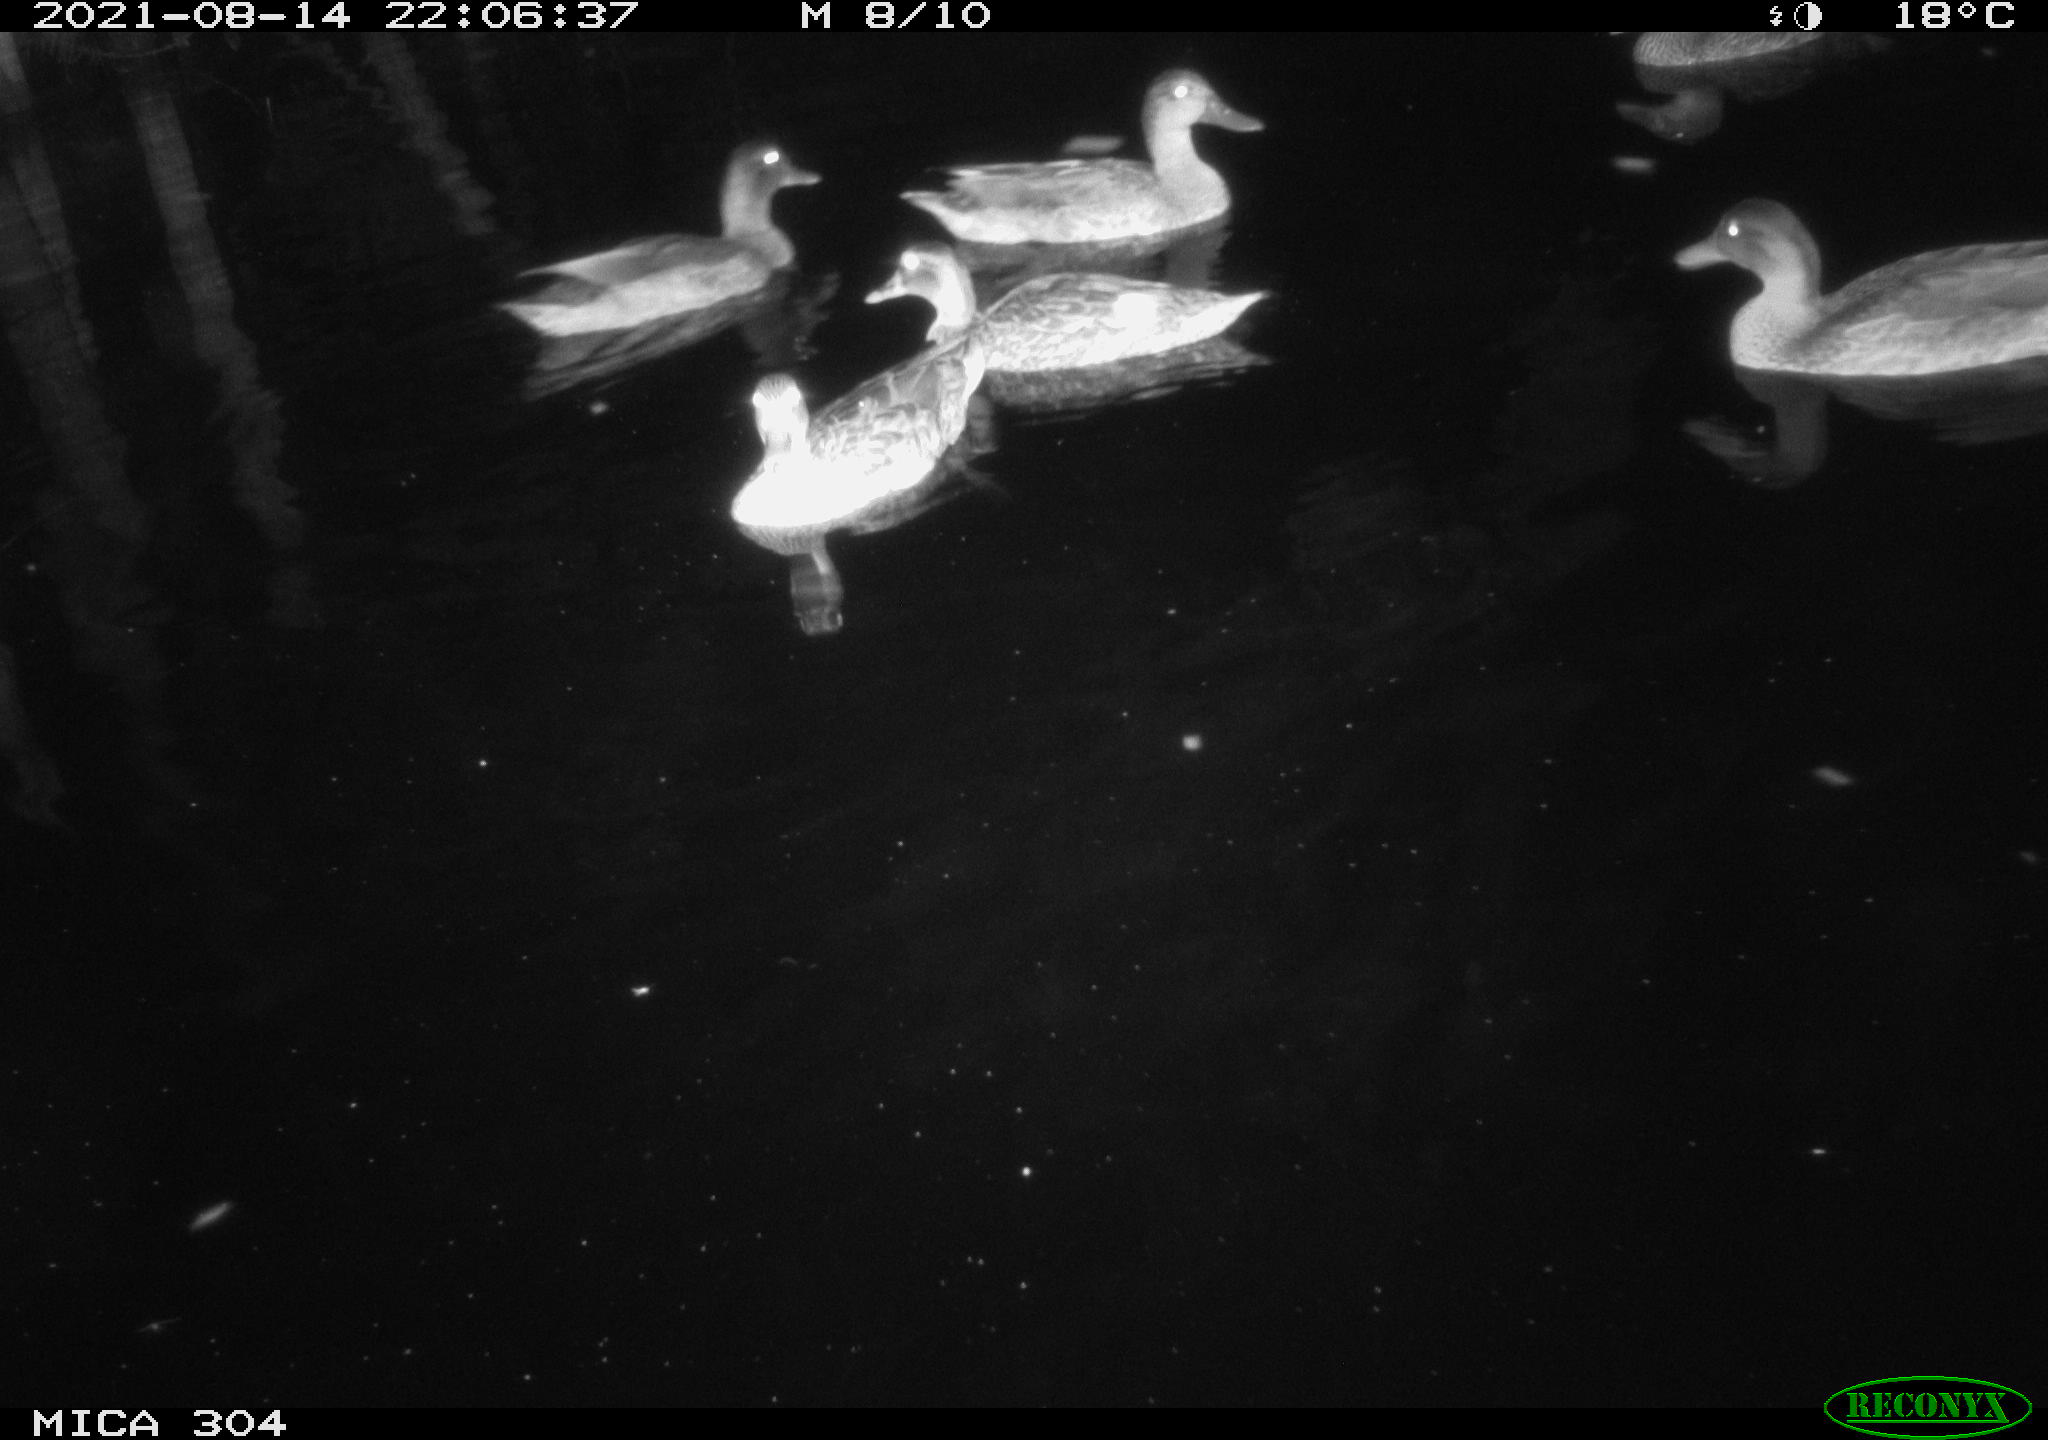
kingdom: Animalia
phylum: Chordata
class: Aves
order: Anseriformes
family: Anatidae
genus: Anas
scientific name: Anas platyrhynchos
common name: Mallard
